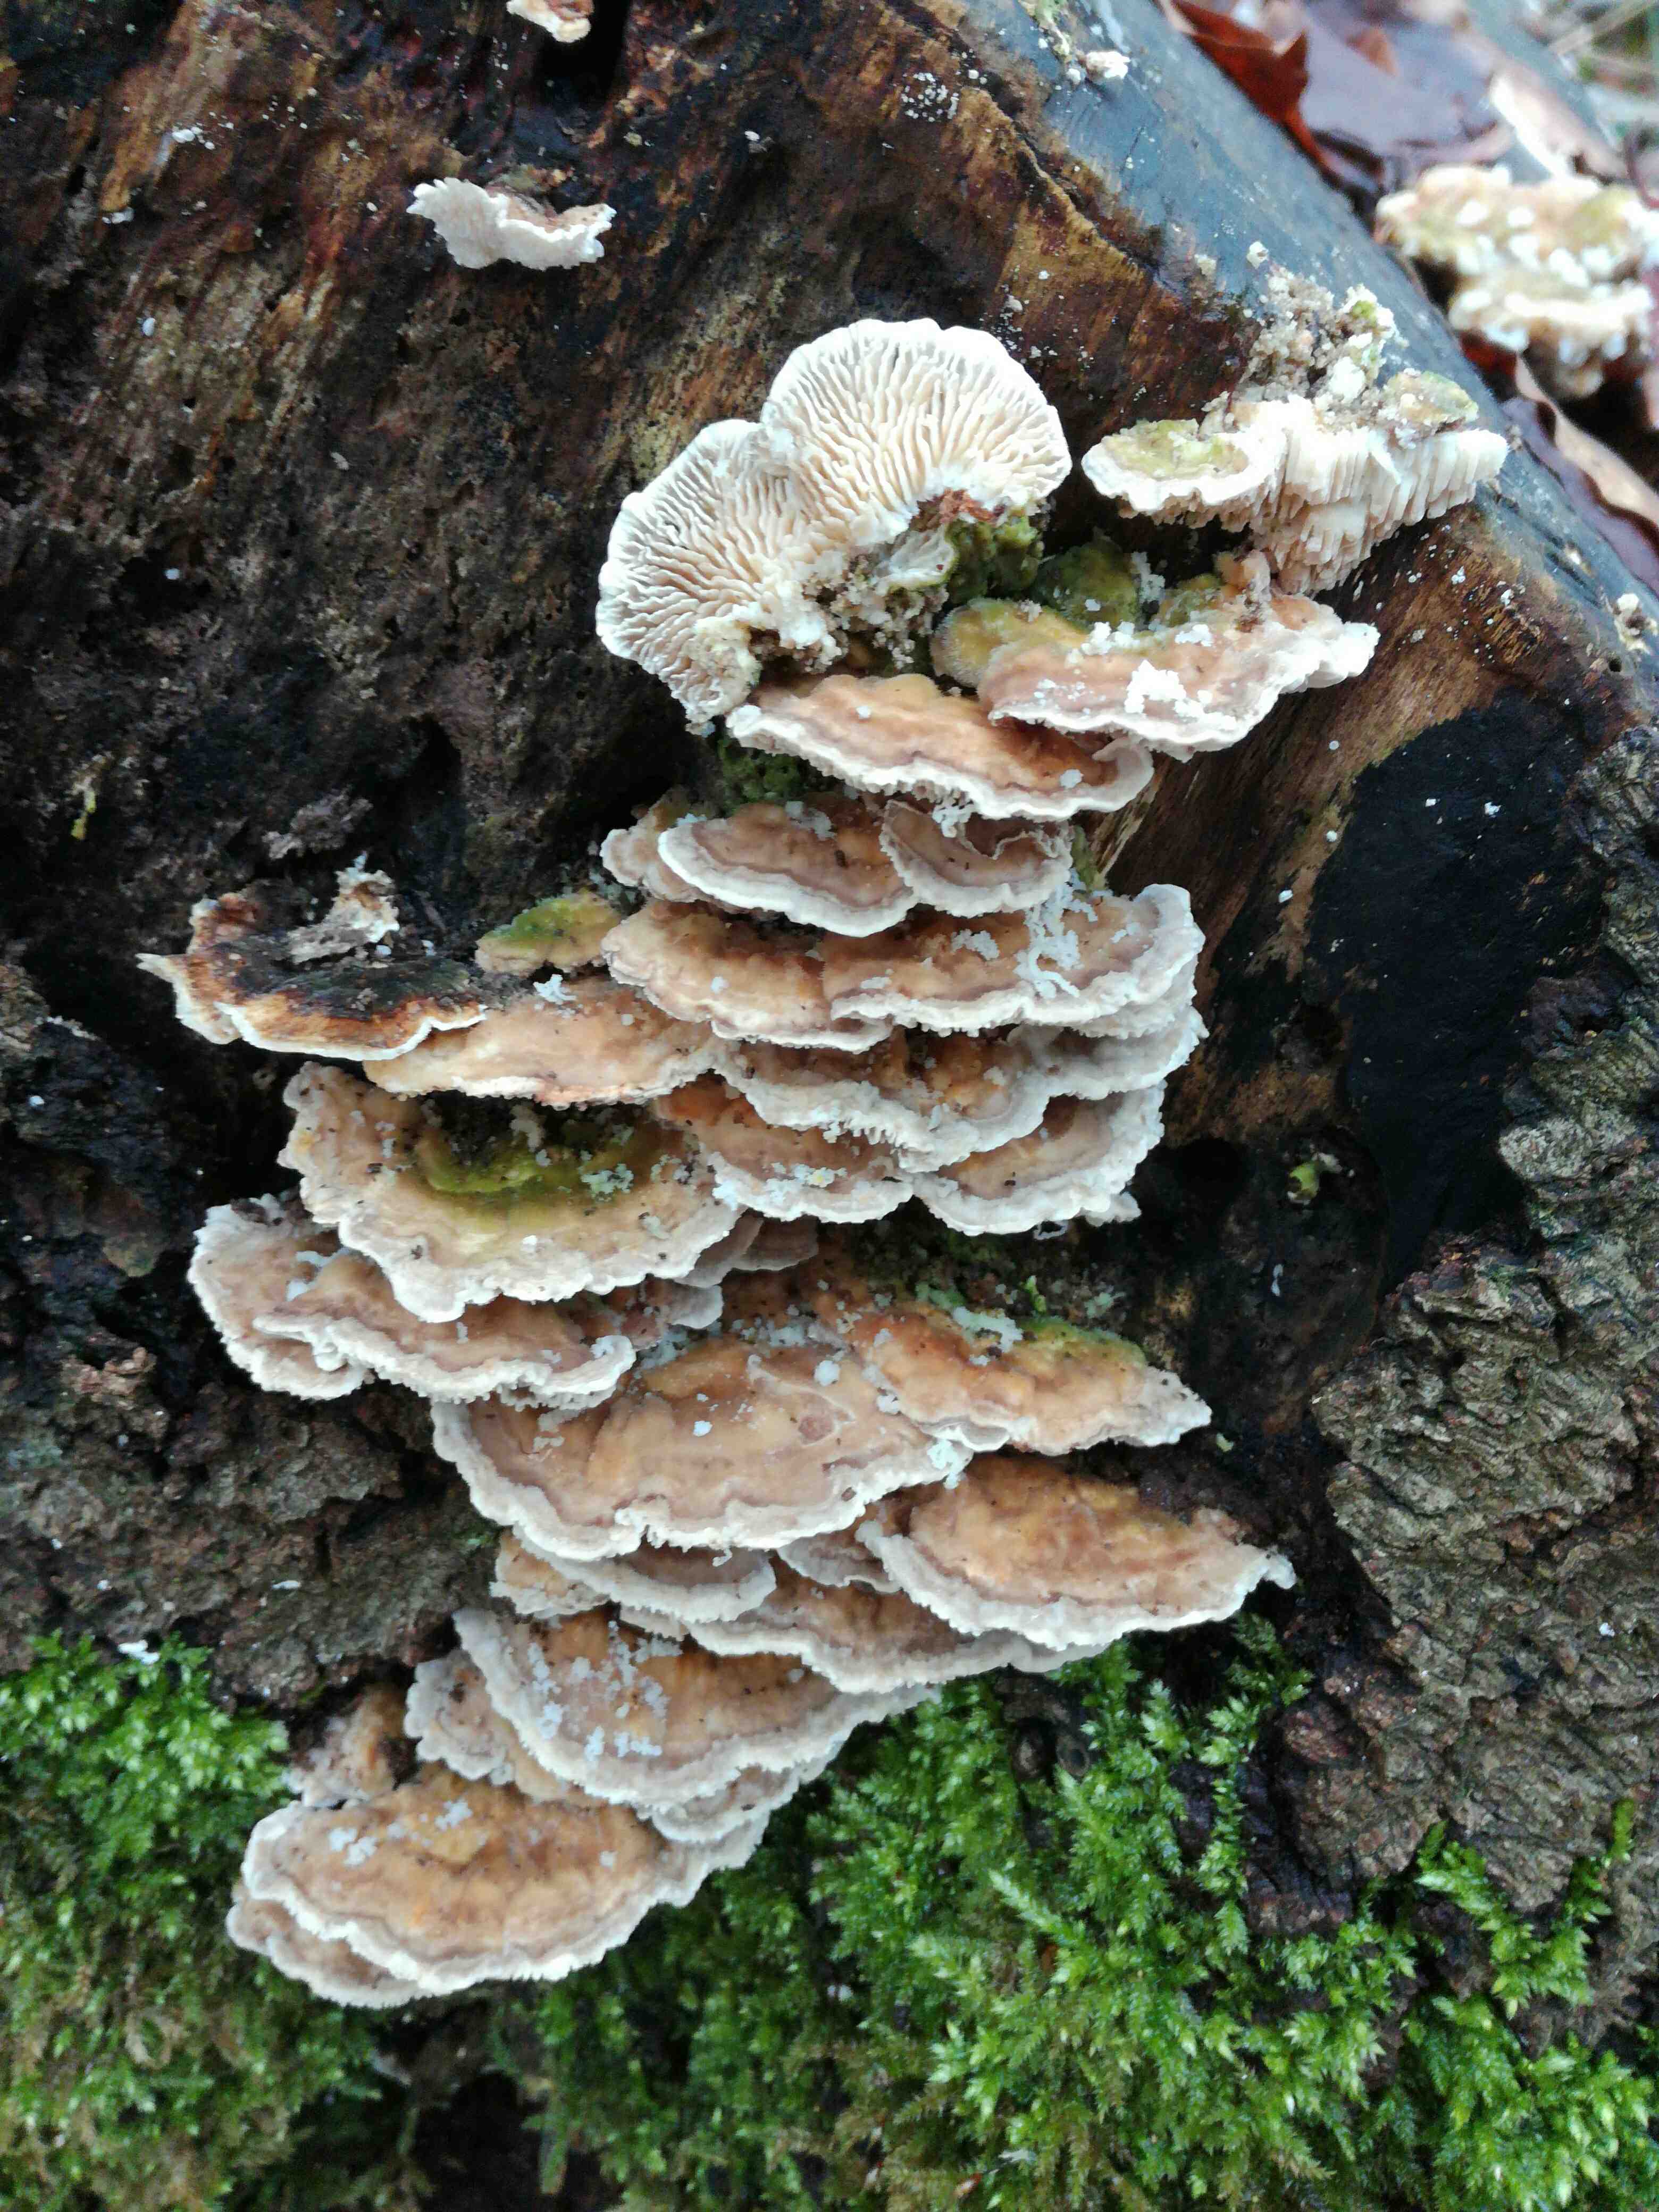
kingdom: Fungi
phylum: Basidiomycota
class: Agaricomycetes
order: Polyporales
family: Polyporaceae
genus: Lenzites
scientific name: Lenzites betulinus
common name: birke-læderporesvamp
